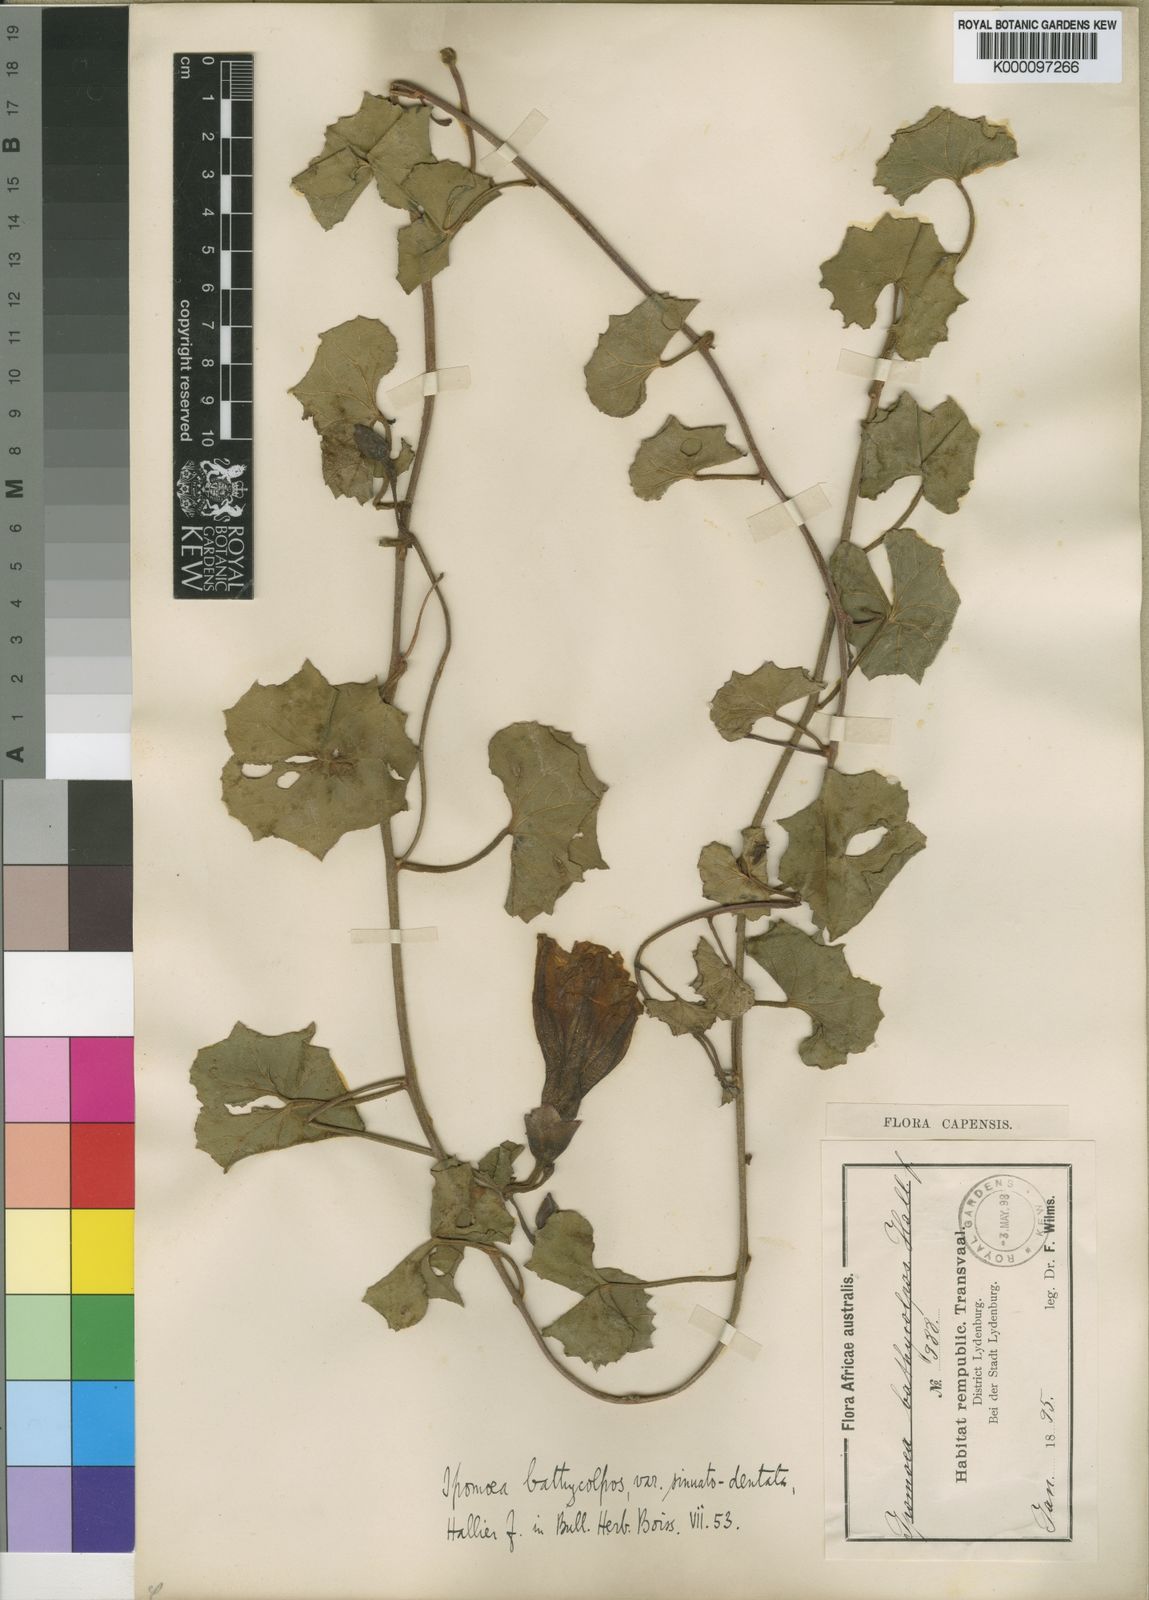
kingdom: Plantae
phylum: Tracheophyta
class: Magnoliopsida
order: Solanales
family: Convolvulaceae
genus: Ipomoea
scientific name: Ipomoea bathycolpos
